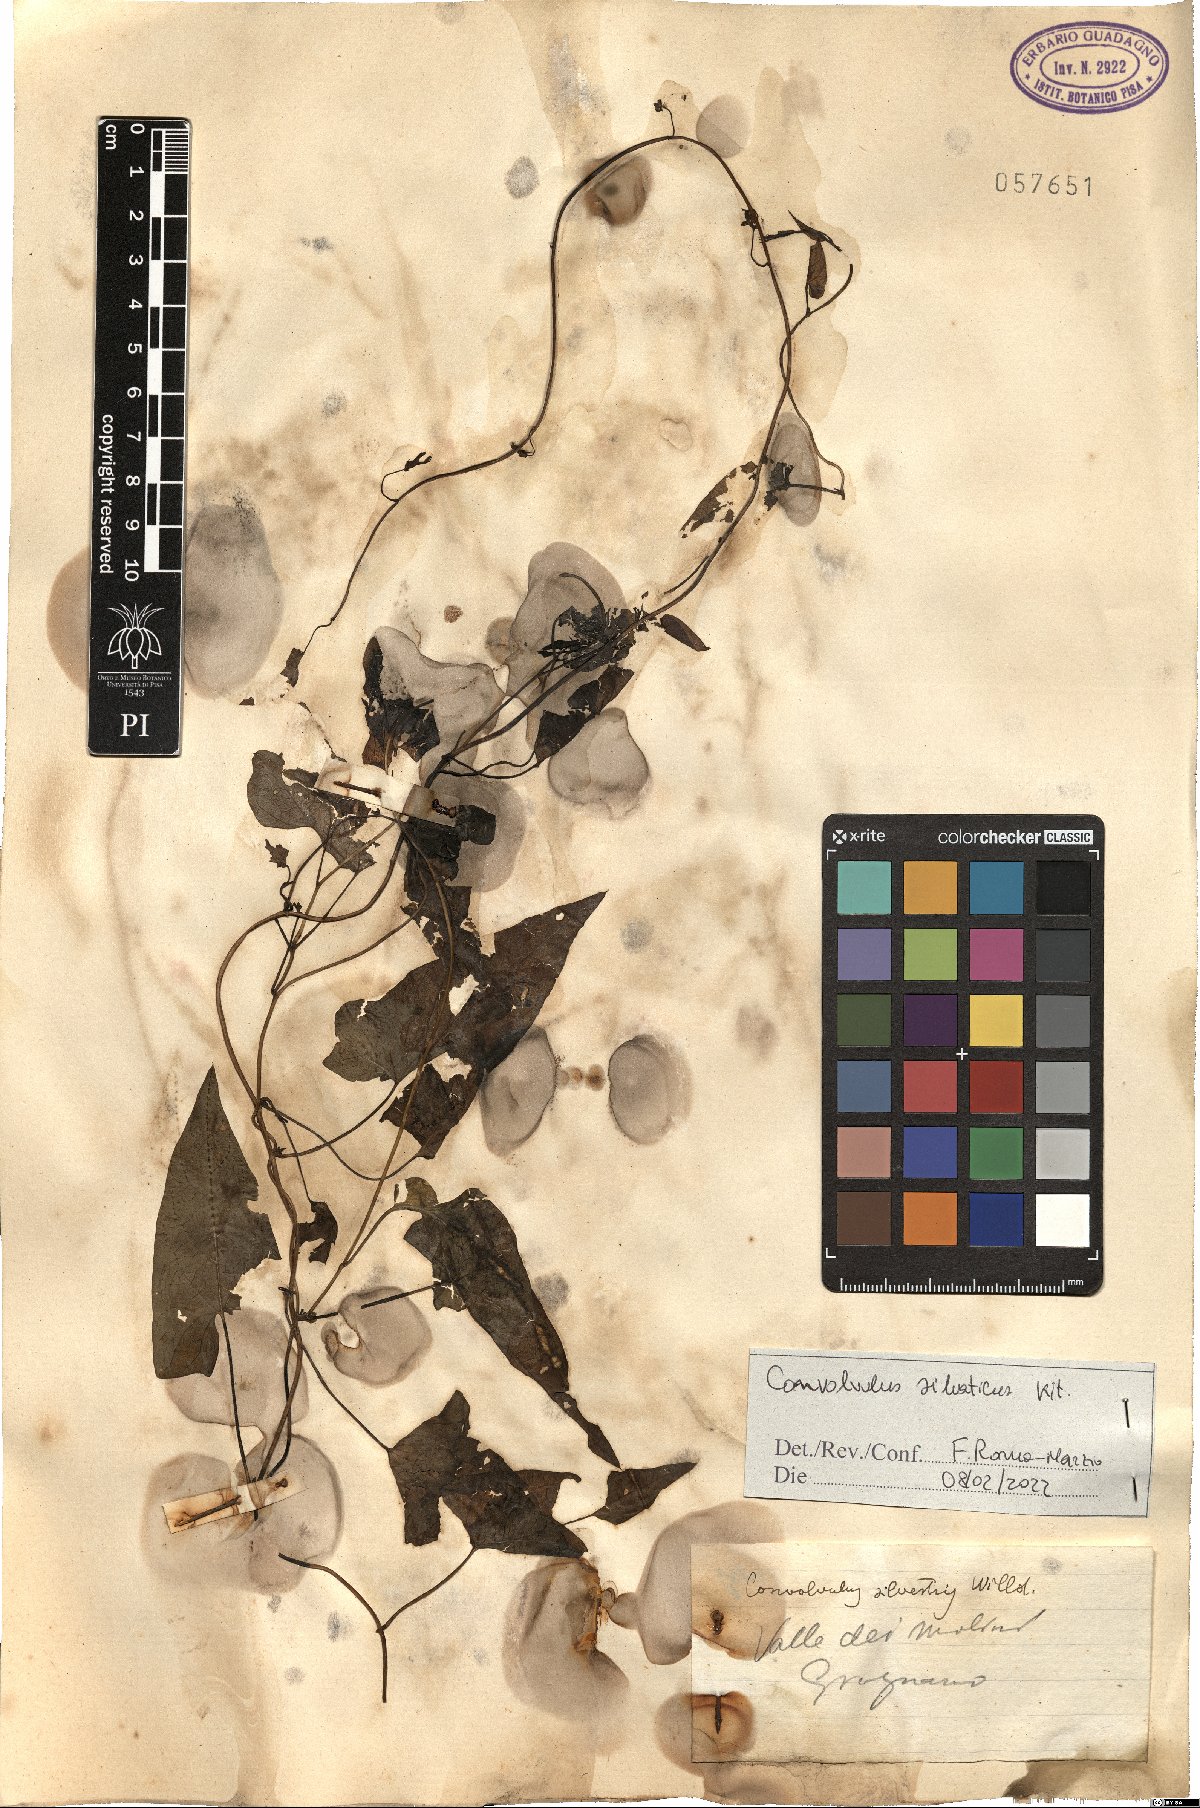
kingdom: Plantae
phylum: Tracheophyta
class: Magnoliopsida
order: Solanales
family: Convolvulaceae
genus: Calystegia
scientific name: Calystegia silvatica
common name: Large bindweed
